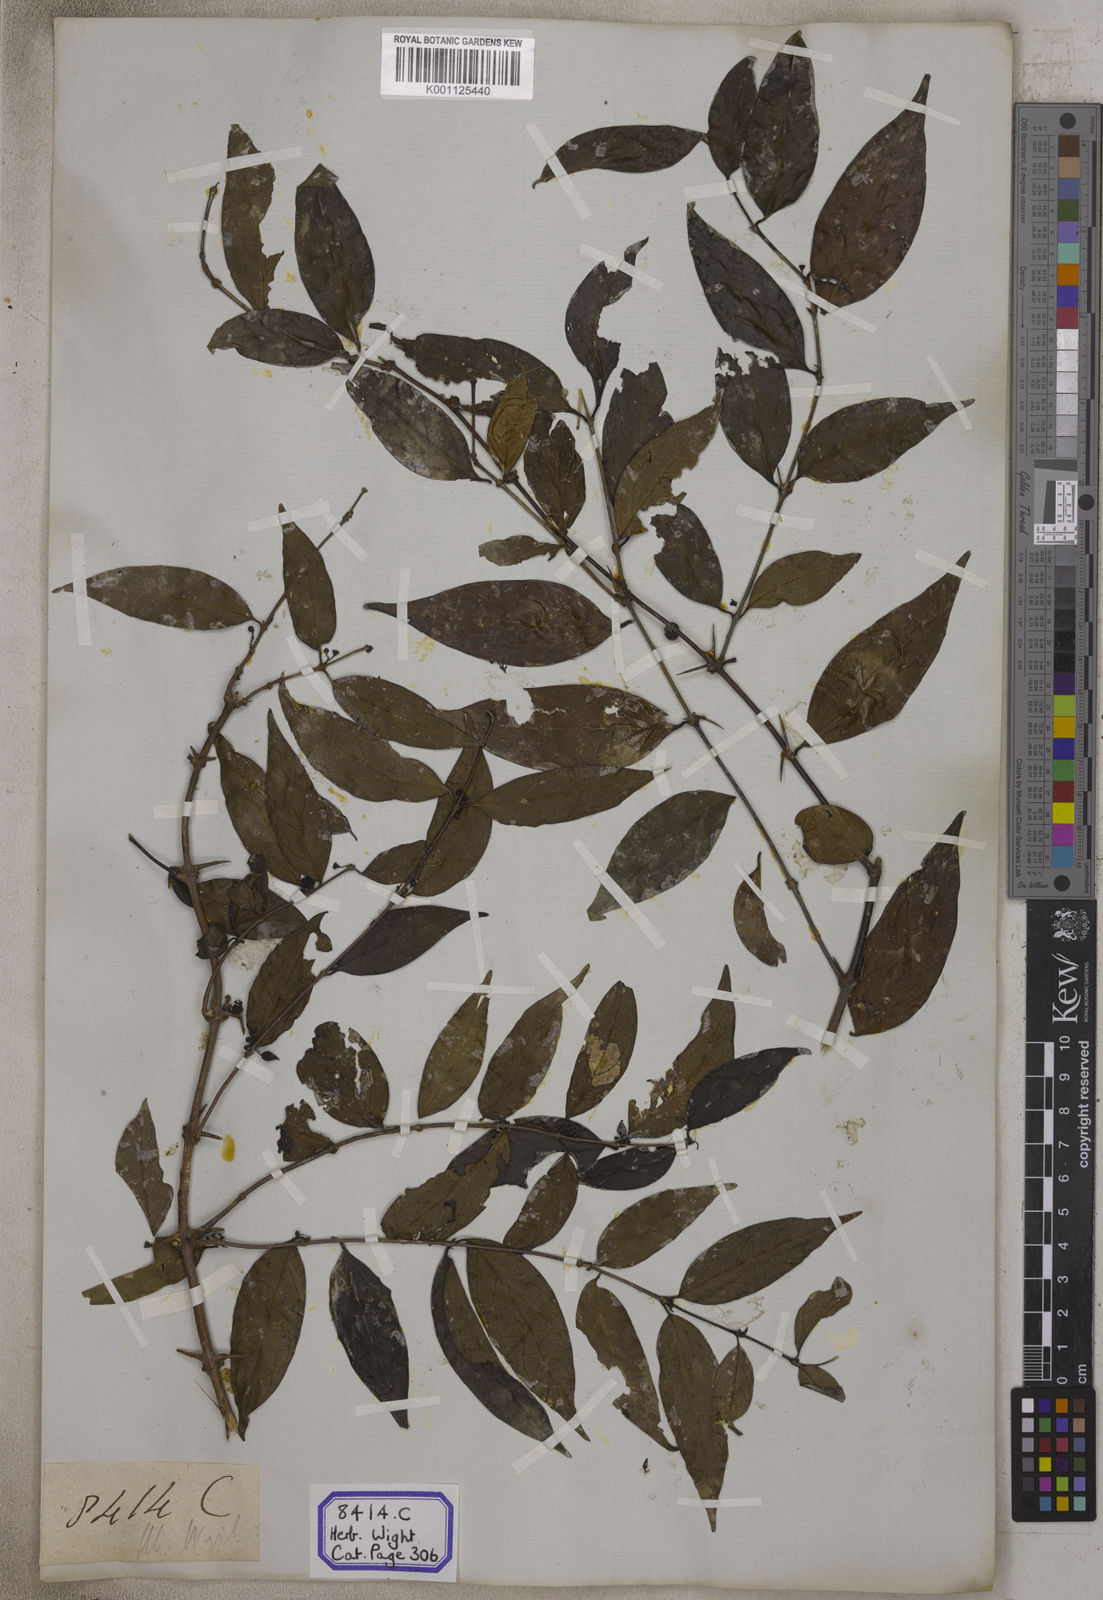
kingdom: Plantae
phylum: Tracheophyta
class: Magnoliopsida
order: Gentianales
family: Rubiaceae
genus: Canthium
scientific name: Canthium angustifolium
